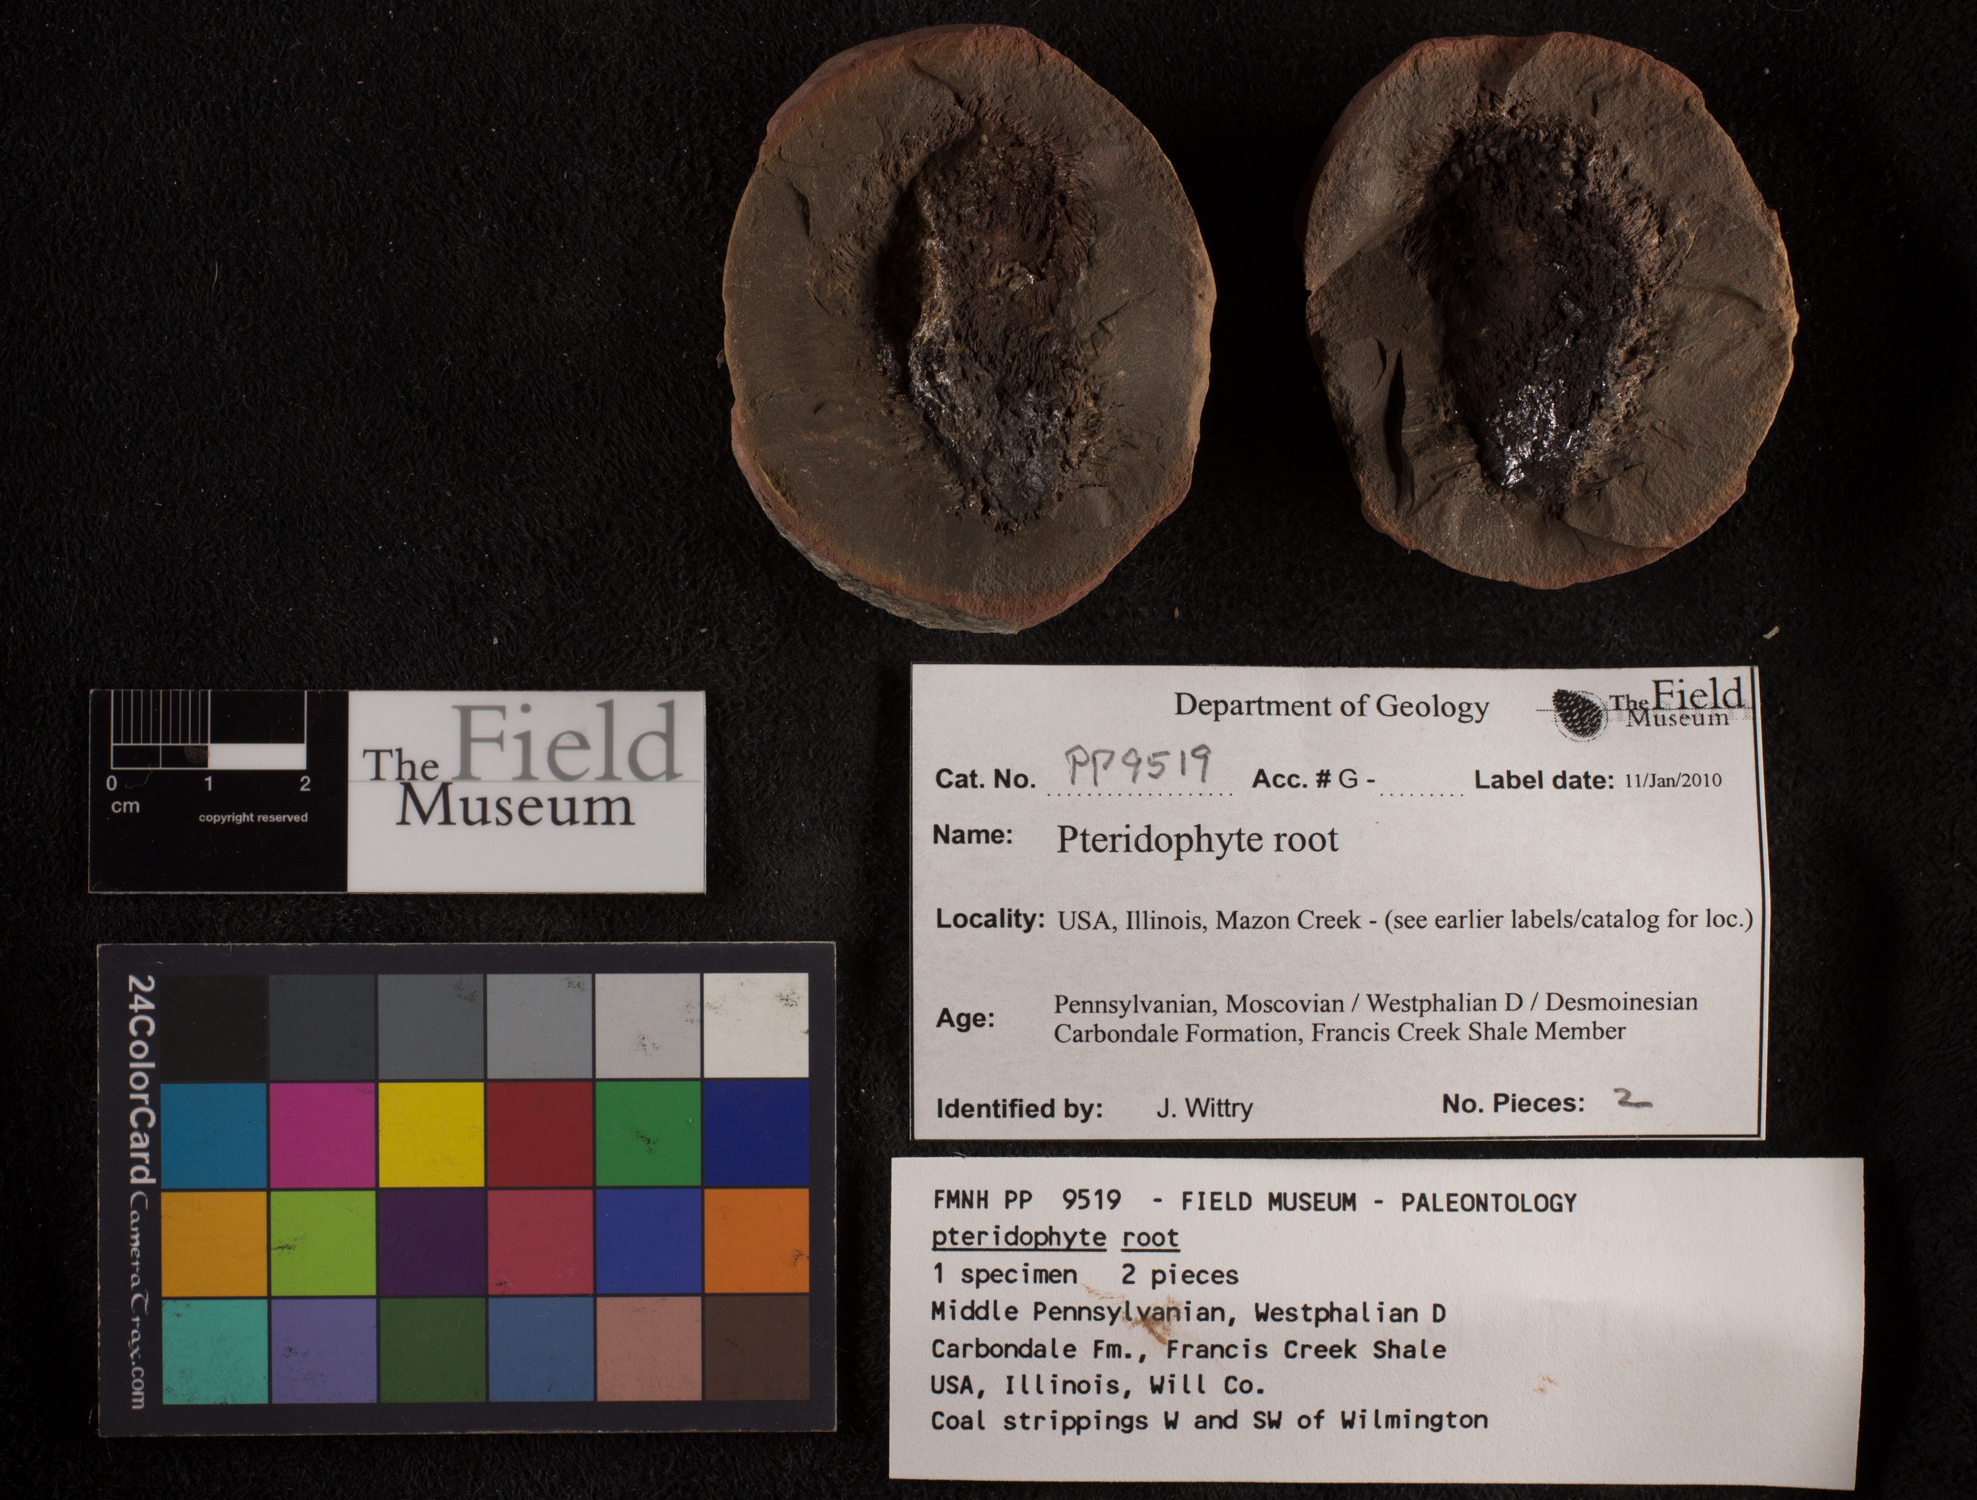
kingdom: Plantae
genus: Rhacophyllum
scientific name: Rhacophyllum
